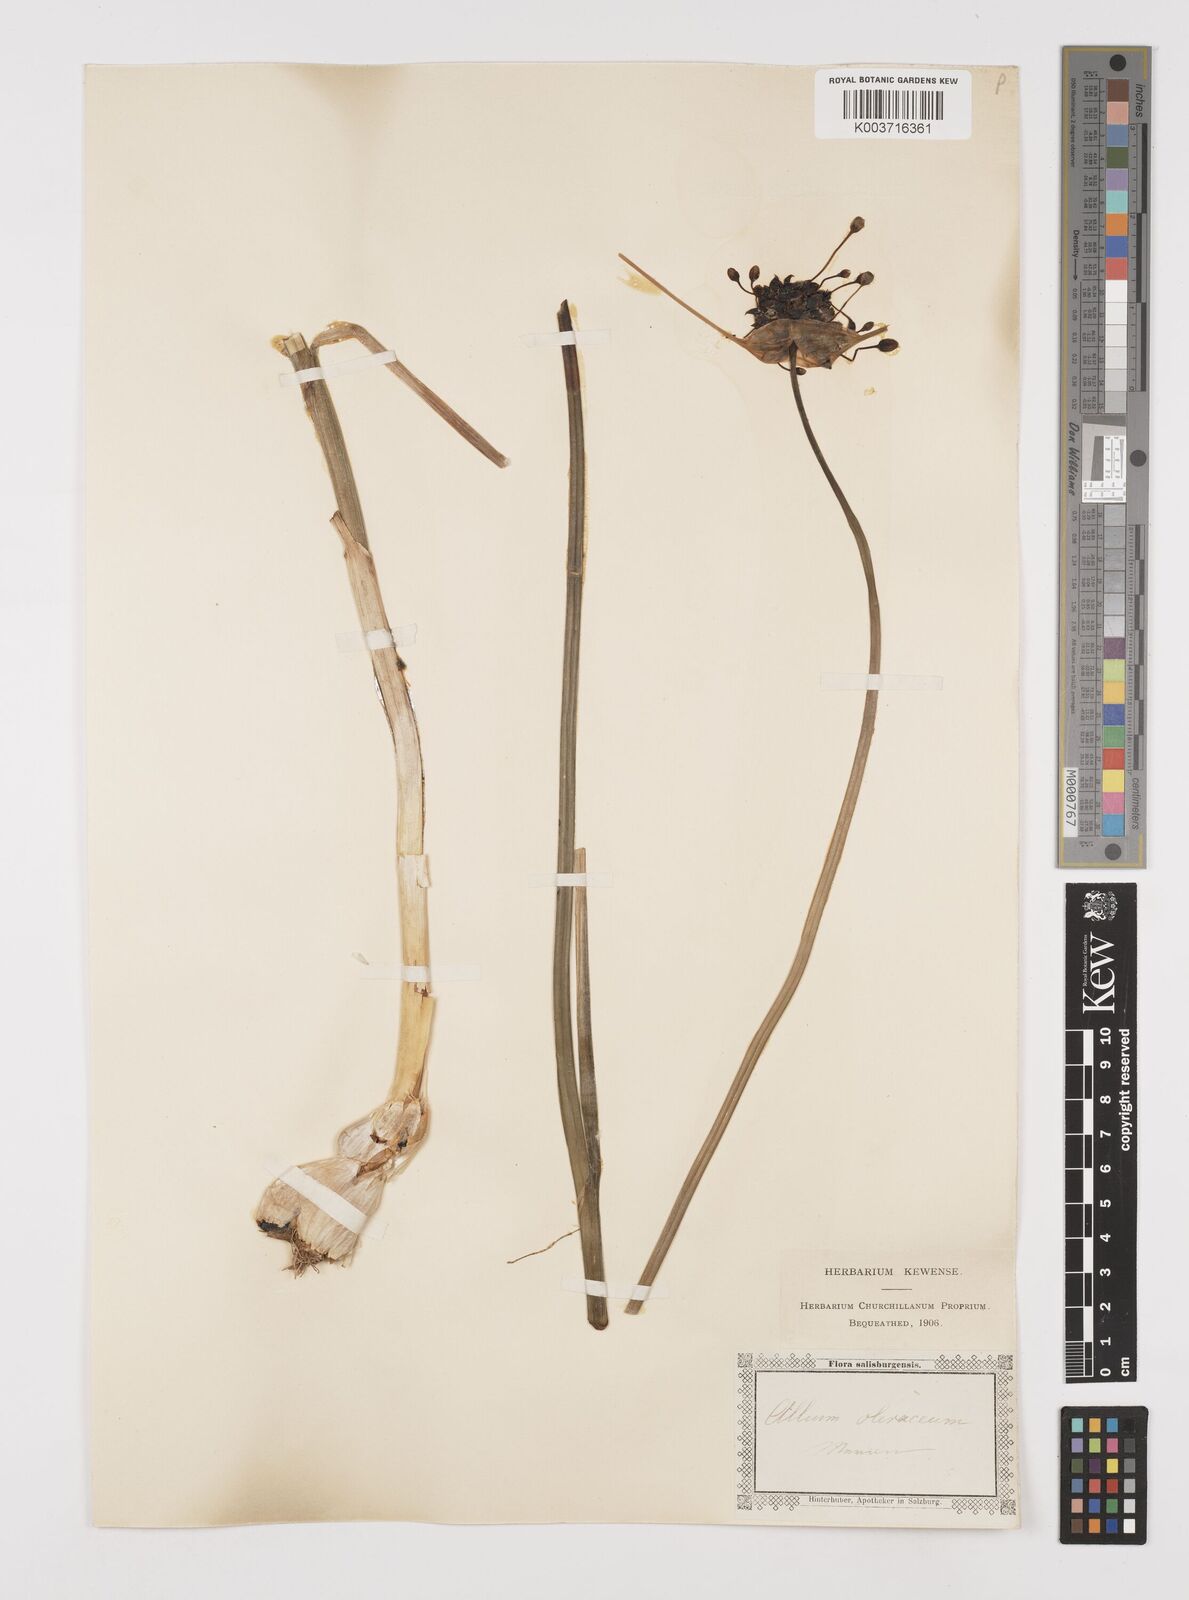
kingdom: Plantae
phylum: Tracheophyta
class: Liliopsida
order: Asparagales
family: Amaryllidaceae
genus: Allium
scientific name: Allium oleraceum
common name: Field garlic
